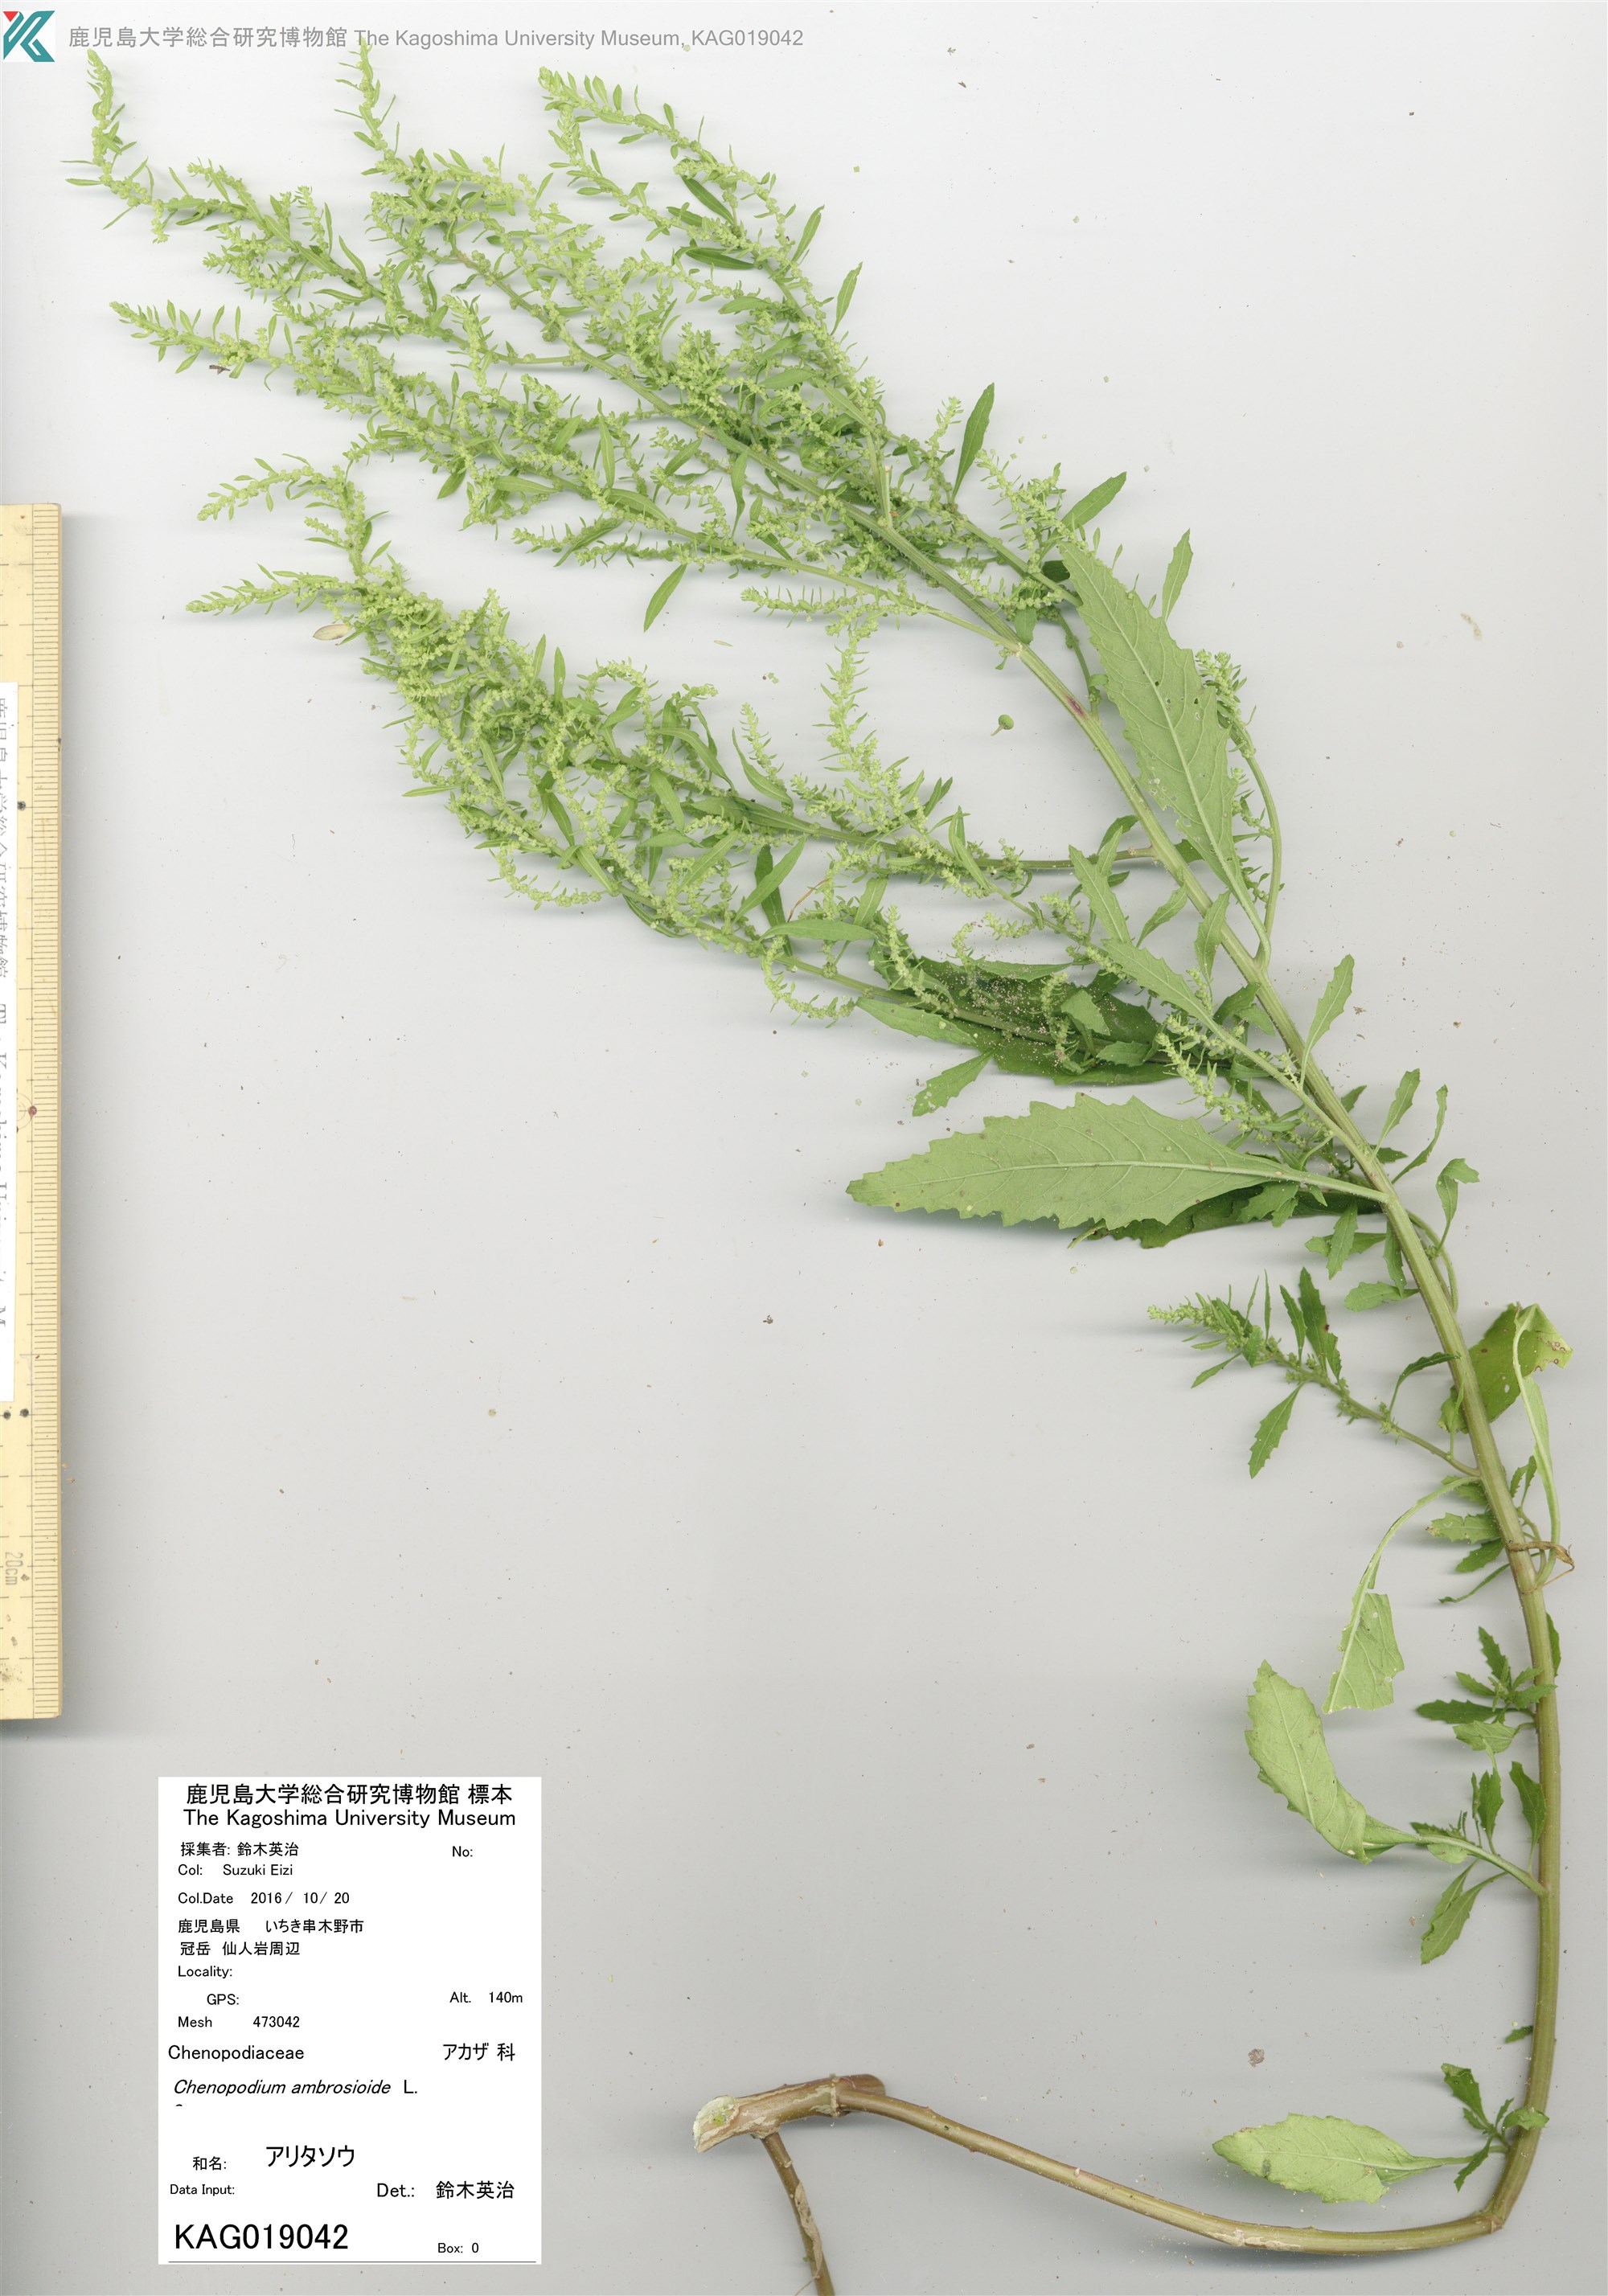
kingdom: Plantae
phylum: Tracheophyta
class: Magnoliopsida
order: Caryophyllales
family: Amaranthaceae
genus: Dysphania
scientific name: Dysphania chilensis
